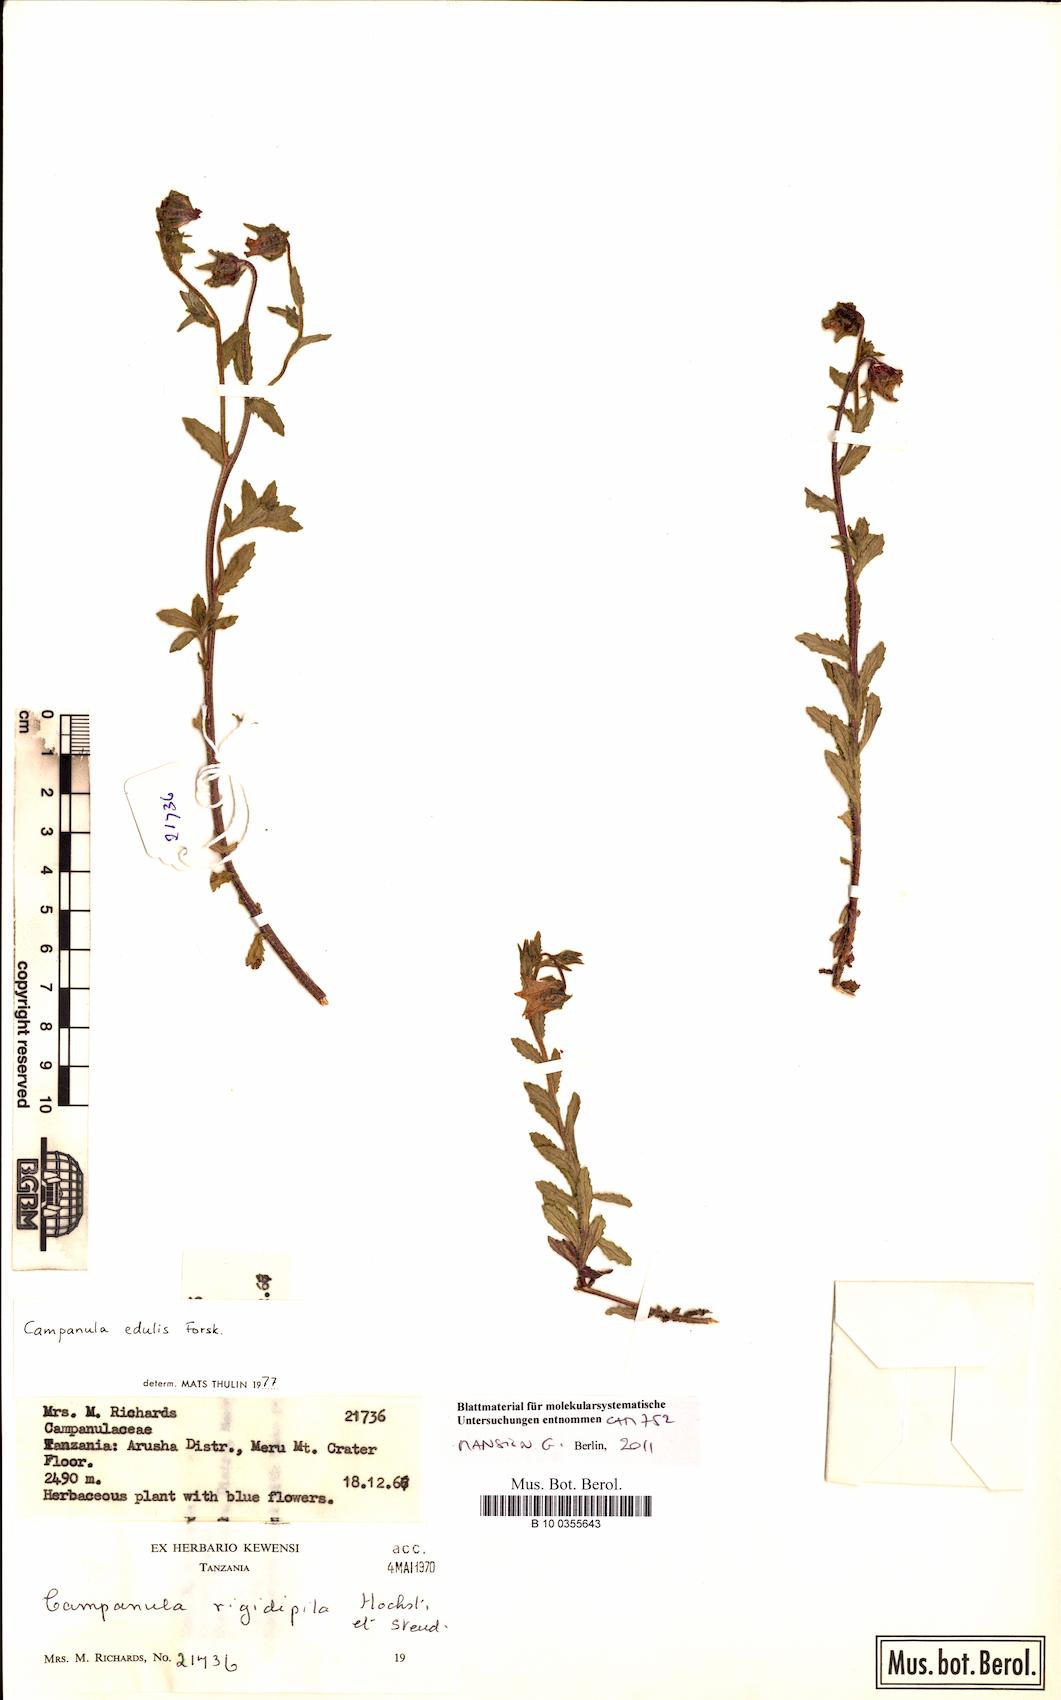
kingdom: Plantae
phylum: Tracheophyta
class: Magnoliopsida
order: Asterales
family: Campanulaceae
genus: Campanula
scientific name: Campanula edulis
